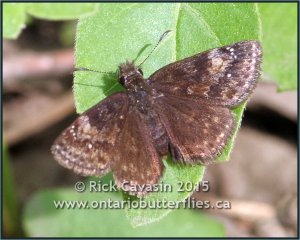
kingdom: Animalia
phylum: Arthropoda
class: Insecta
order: Lepidoptera
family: Hesperiidae
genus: Gesta
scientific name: Gesta
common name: Columbine Duskywing
